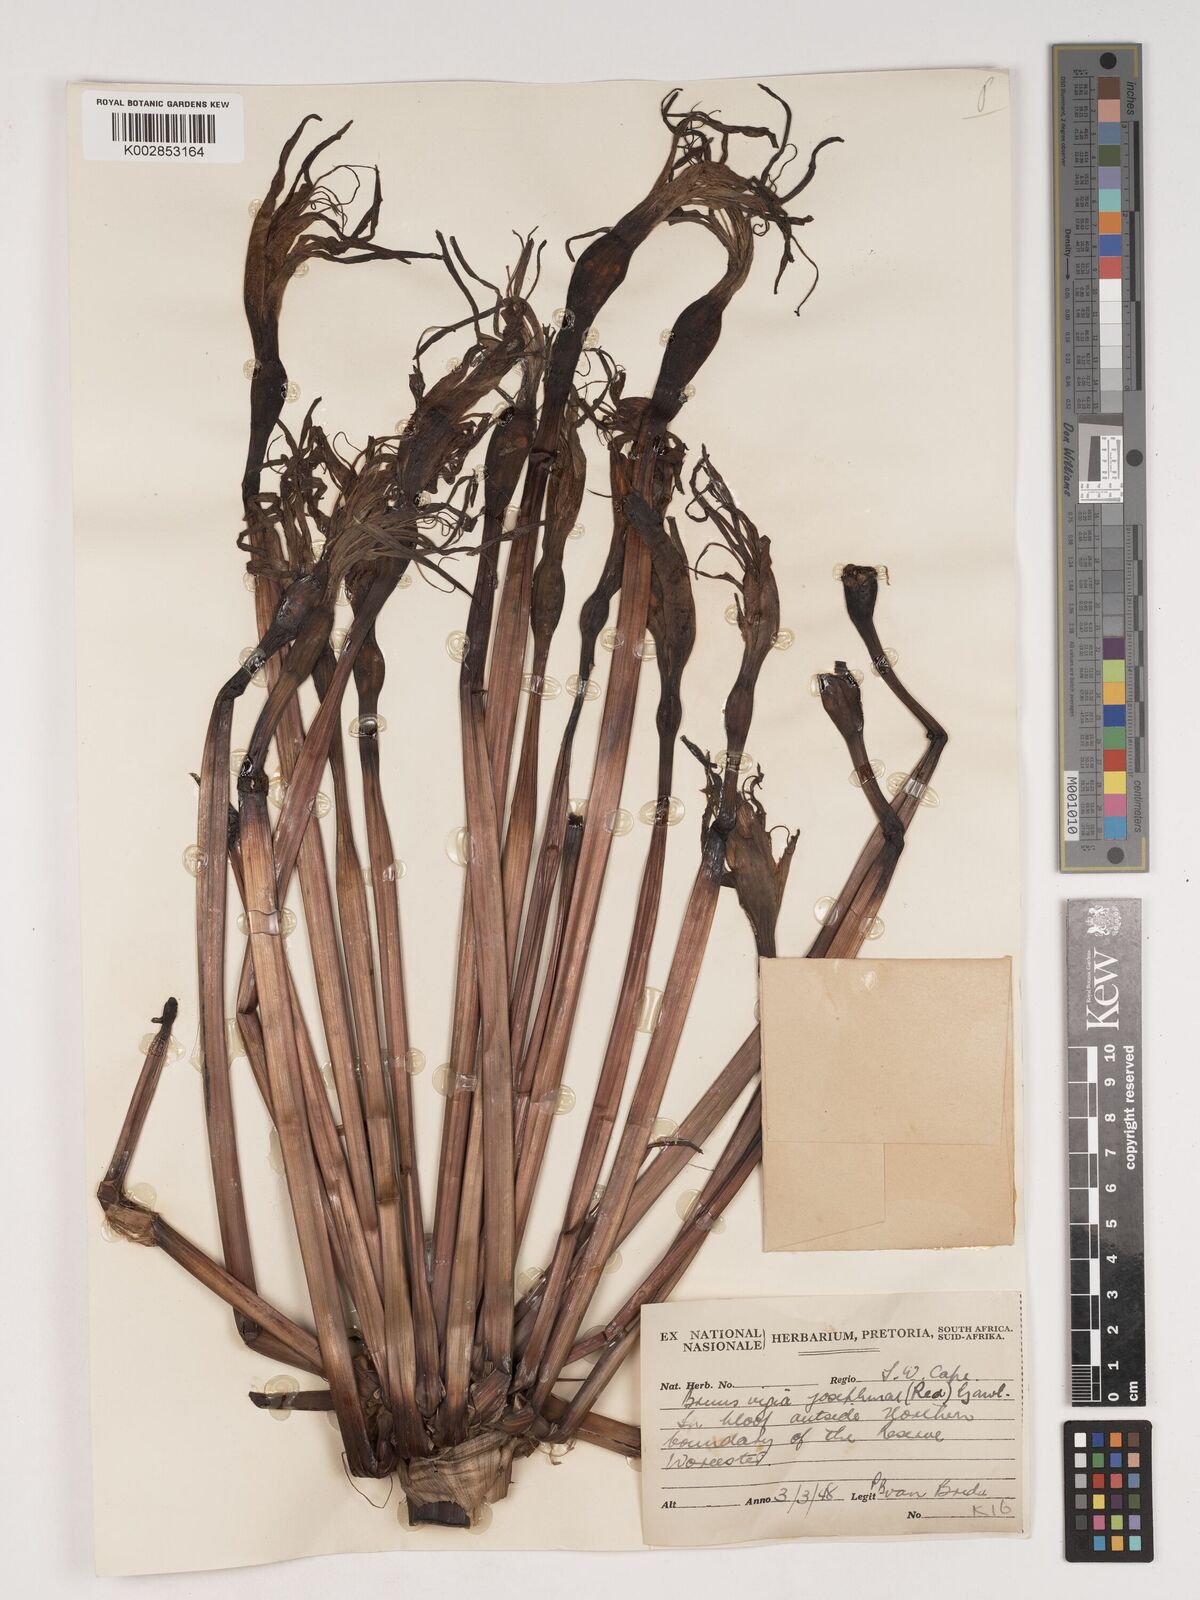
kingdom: Plantae
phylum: Tracheophyta
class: Liliopsida
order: Asparagales
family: Amaryllidaceae
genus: Brunsvigia
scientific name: Brunsvigia josephinae
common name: Josephine's-lily
